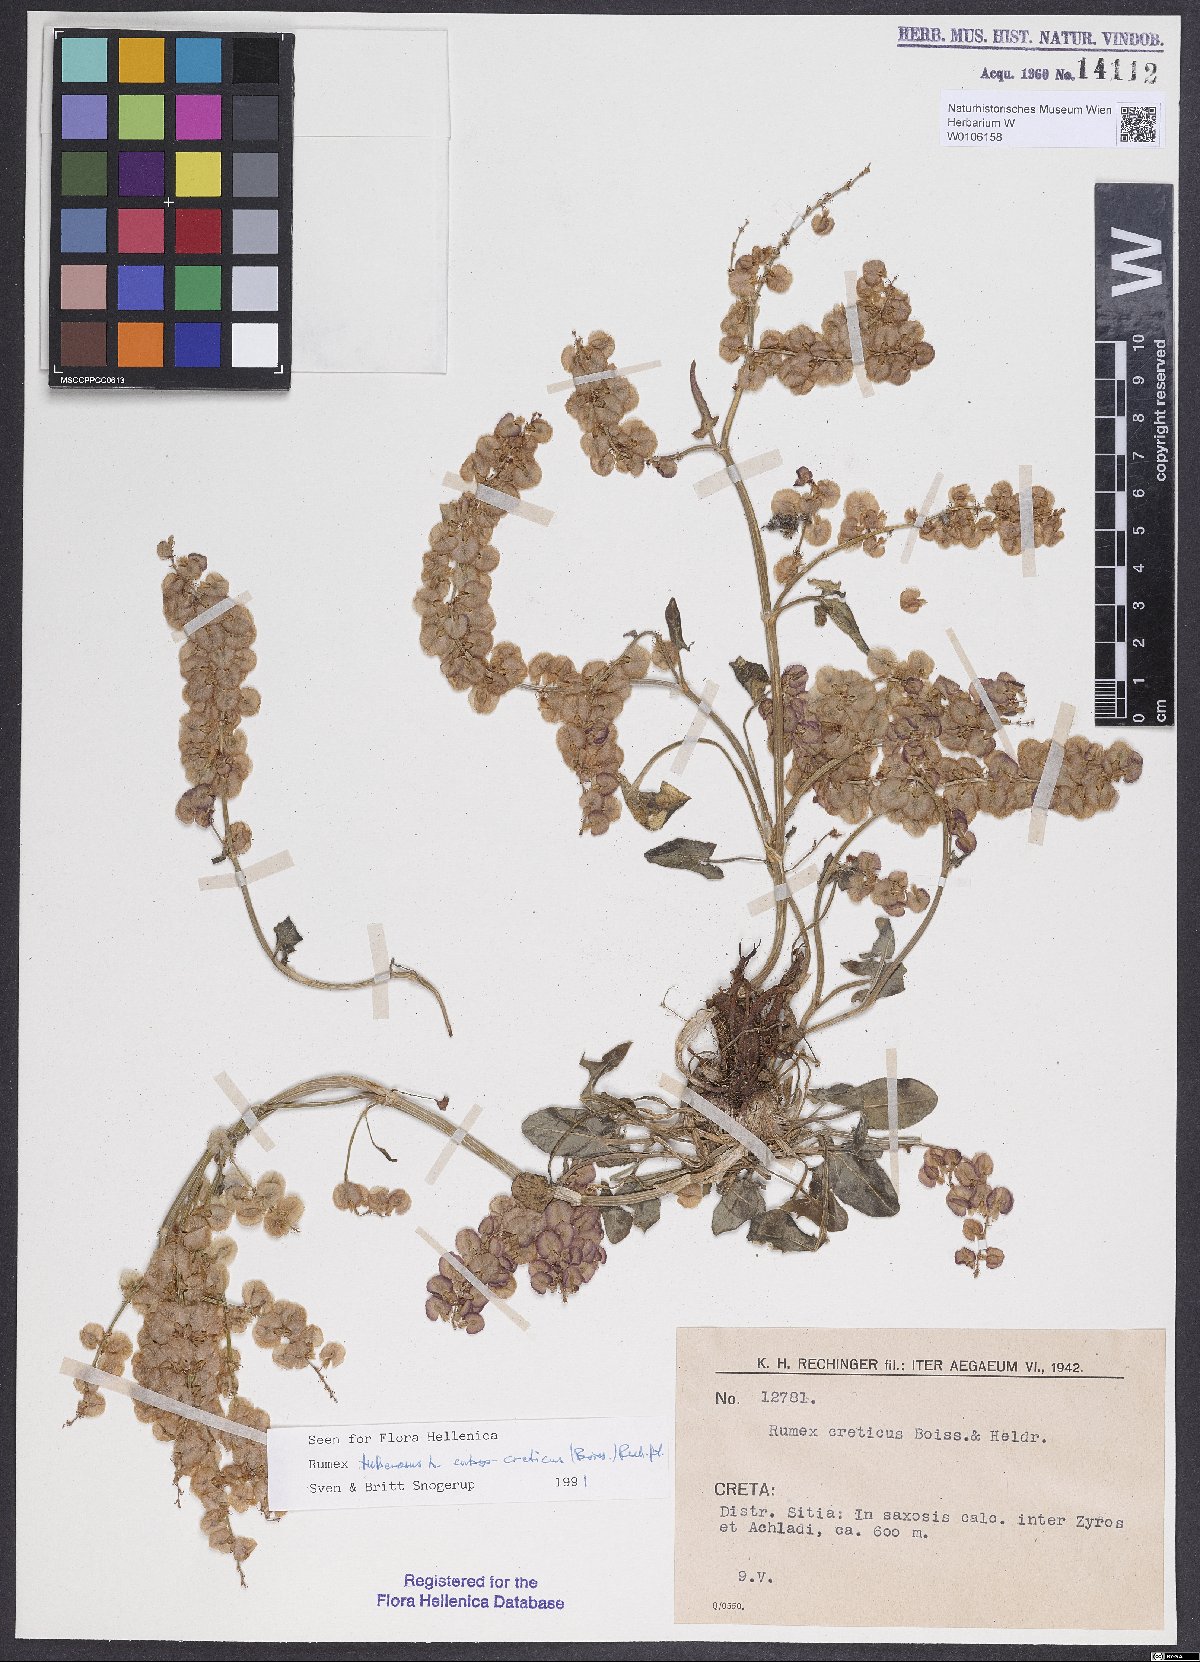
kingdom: Plantae
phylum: Tracheophyta
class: Magnoliopsida
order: Caryophyllales
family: Polygonaceae
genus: Rumex
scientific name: Rumex tuberosus
